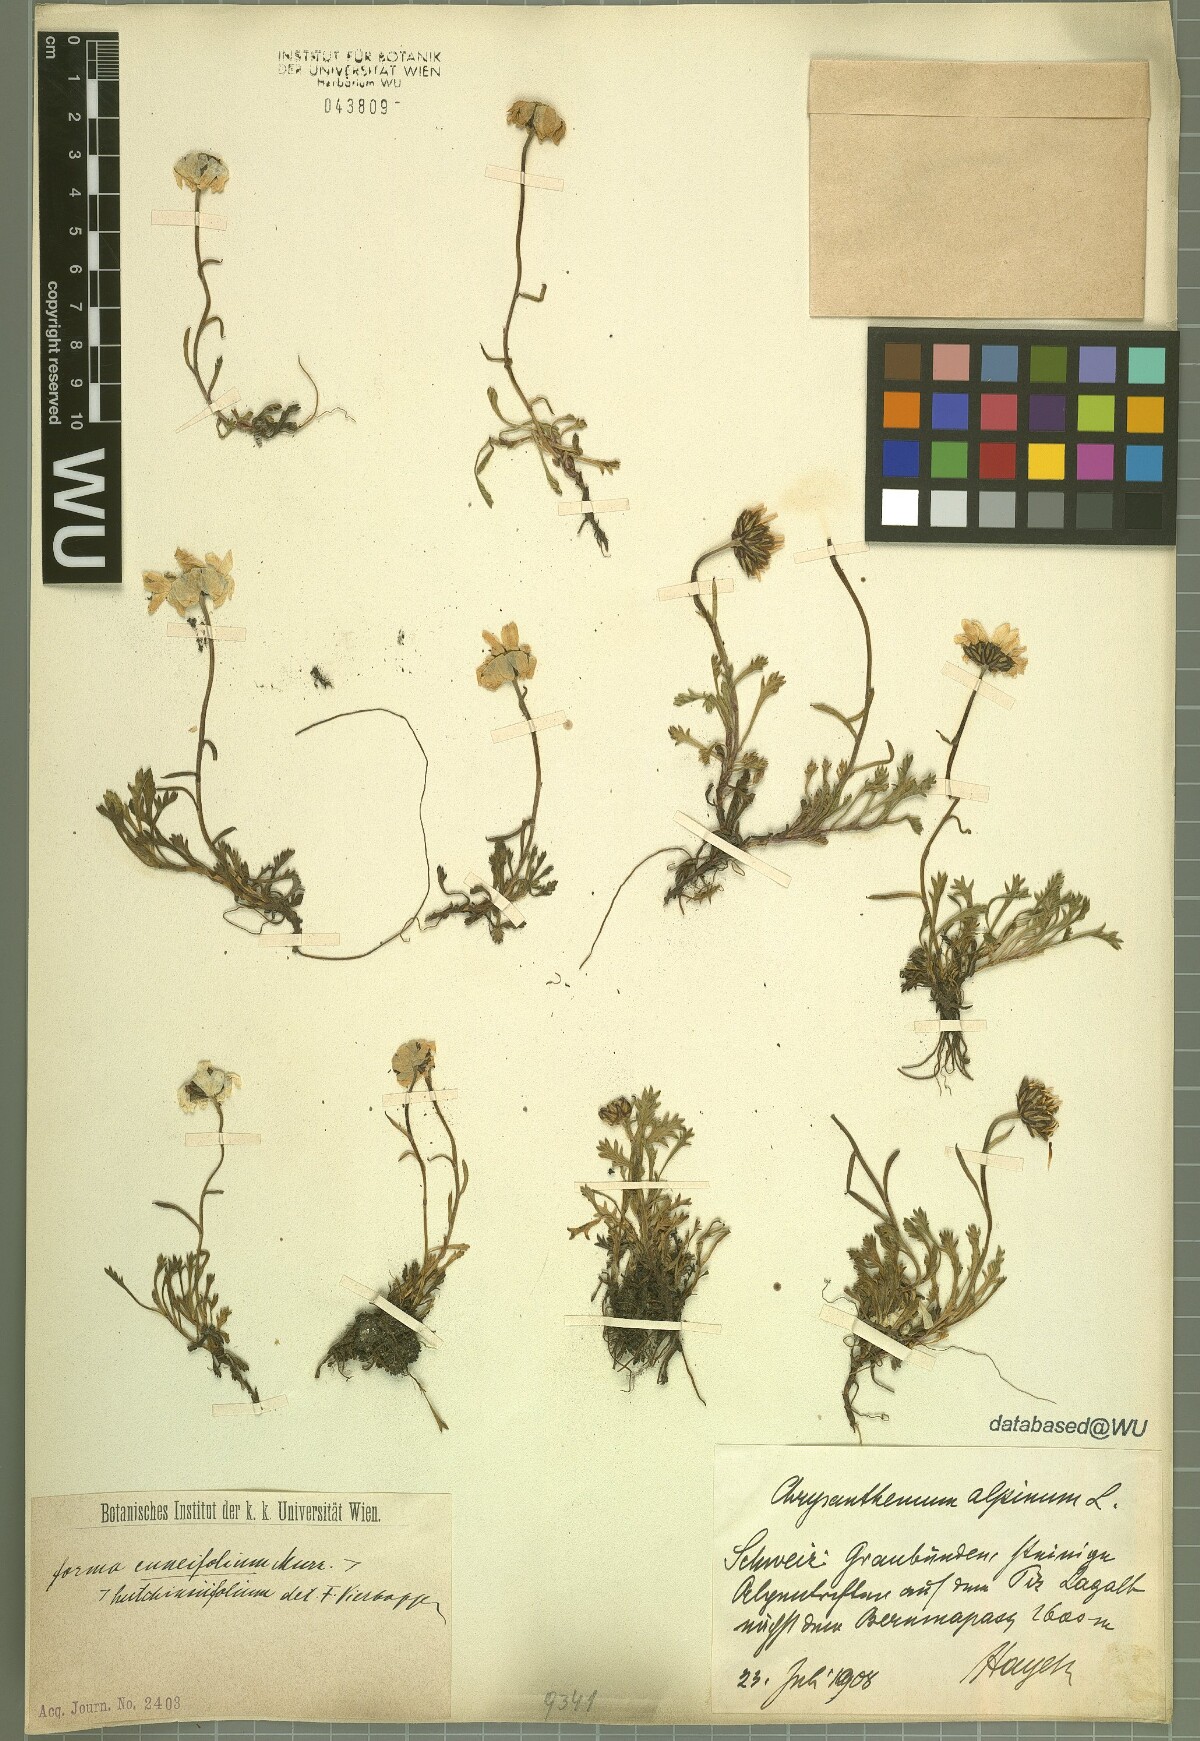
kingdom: Plantae
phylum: Tracheophyta
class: Magnoliopsida
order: Asterales
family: Asteraceae
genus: Leucanthemopsis
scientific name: Leucanthemopsis alpina
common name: Alpine moon daisy
